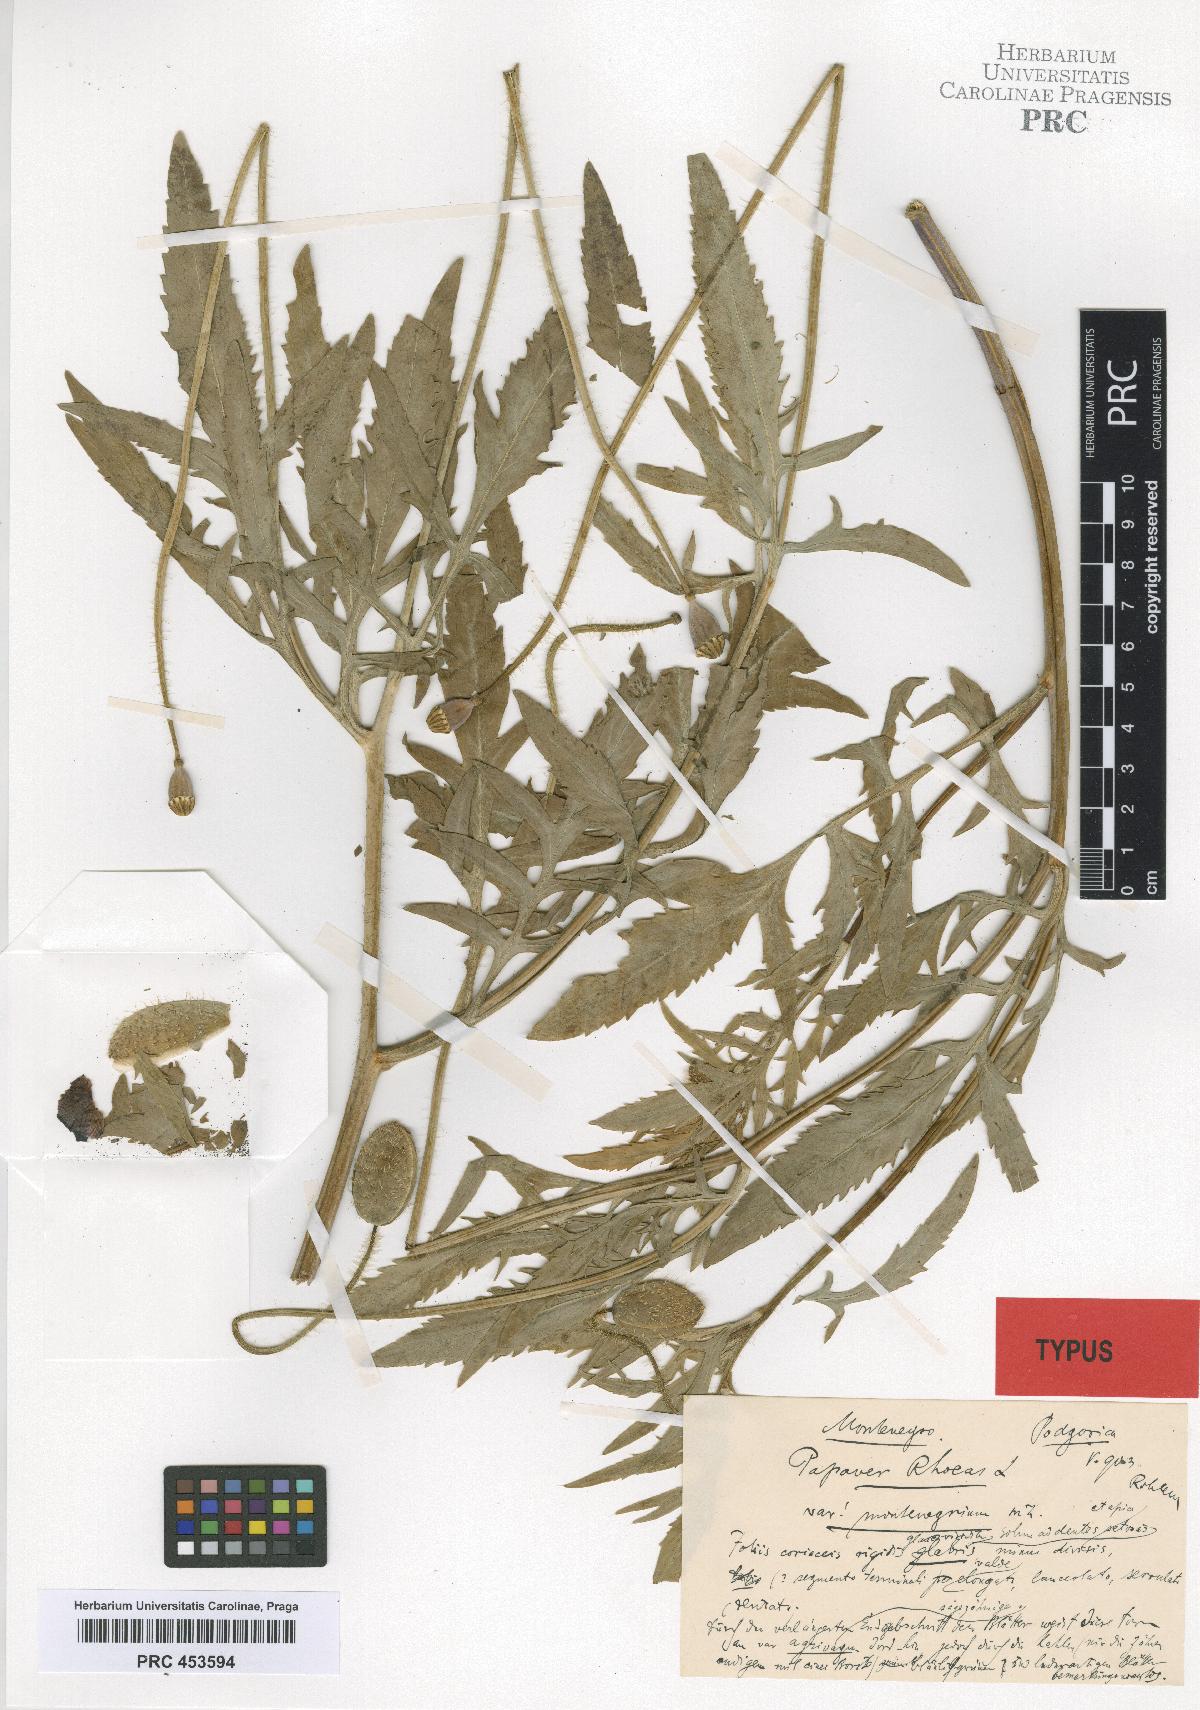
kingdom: Plantae
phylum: Tracheophyta
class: Magnoliopsida
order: Ranunculales
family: Papaveraceae
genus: Papaver
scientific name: Papaver rhoeas
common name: Corn poppy
